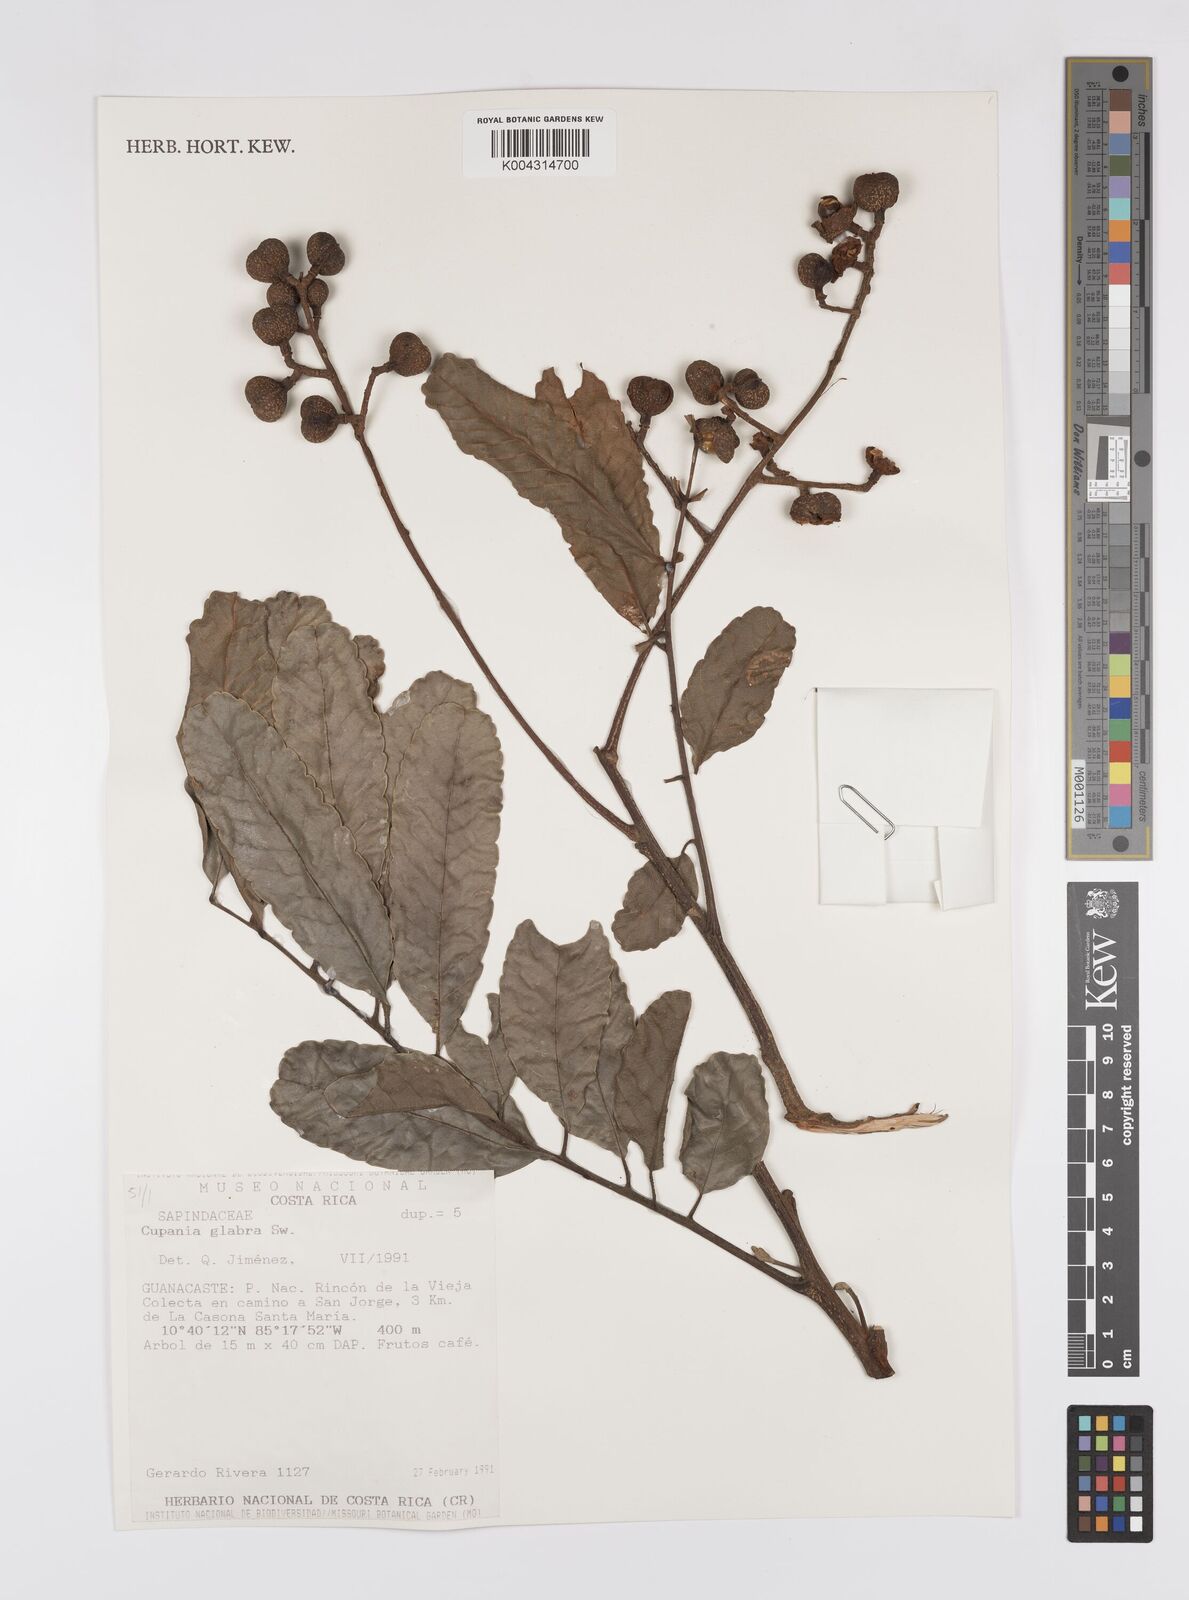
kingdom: Plantae
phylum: Tracheophyta
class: Magnoliopsida
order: Sapindales
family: Sapindaceae
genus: Cupania
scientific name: Cupania
